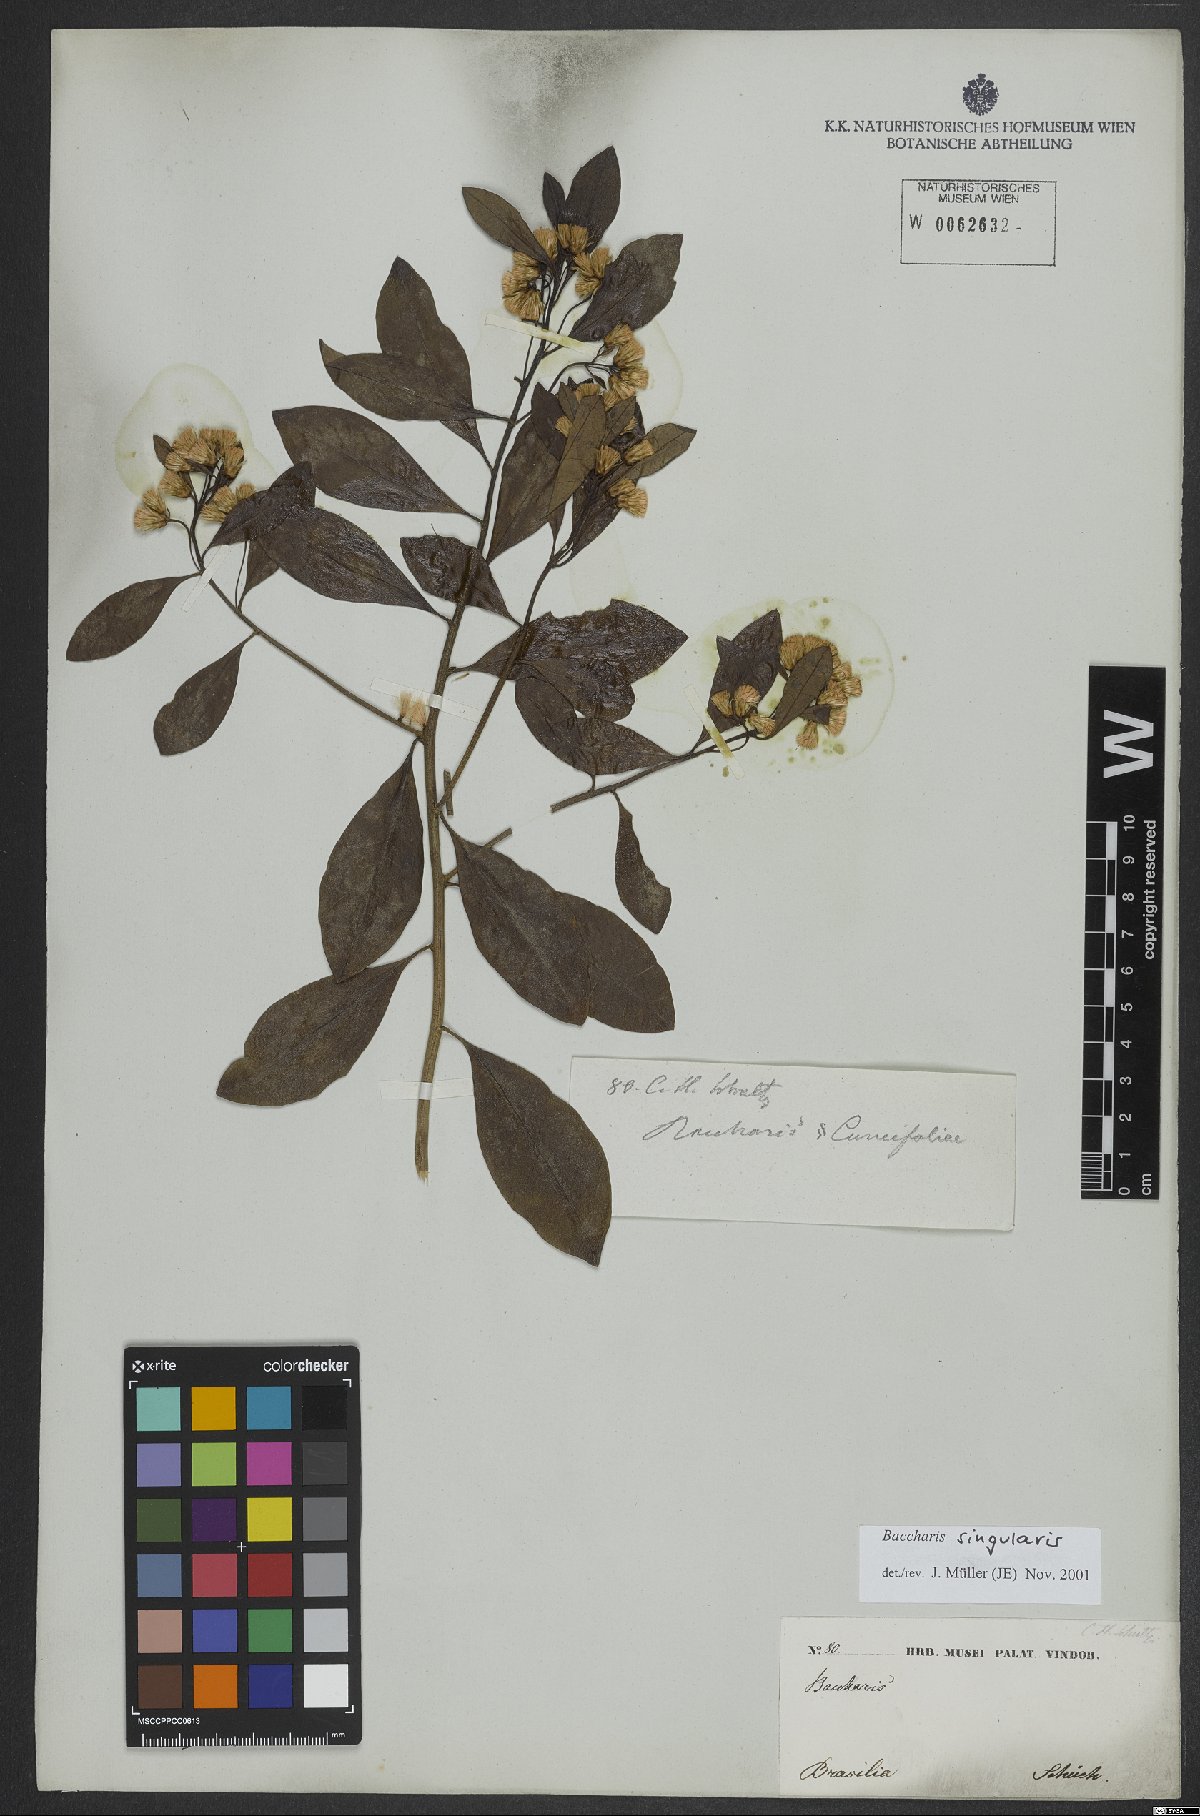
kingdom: Plantae
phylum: Tracheophyta
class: Magnoliopsida
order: Asterales
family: Asteraceae
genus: Baccharis
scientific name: Baccharis singularis
